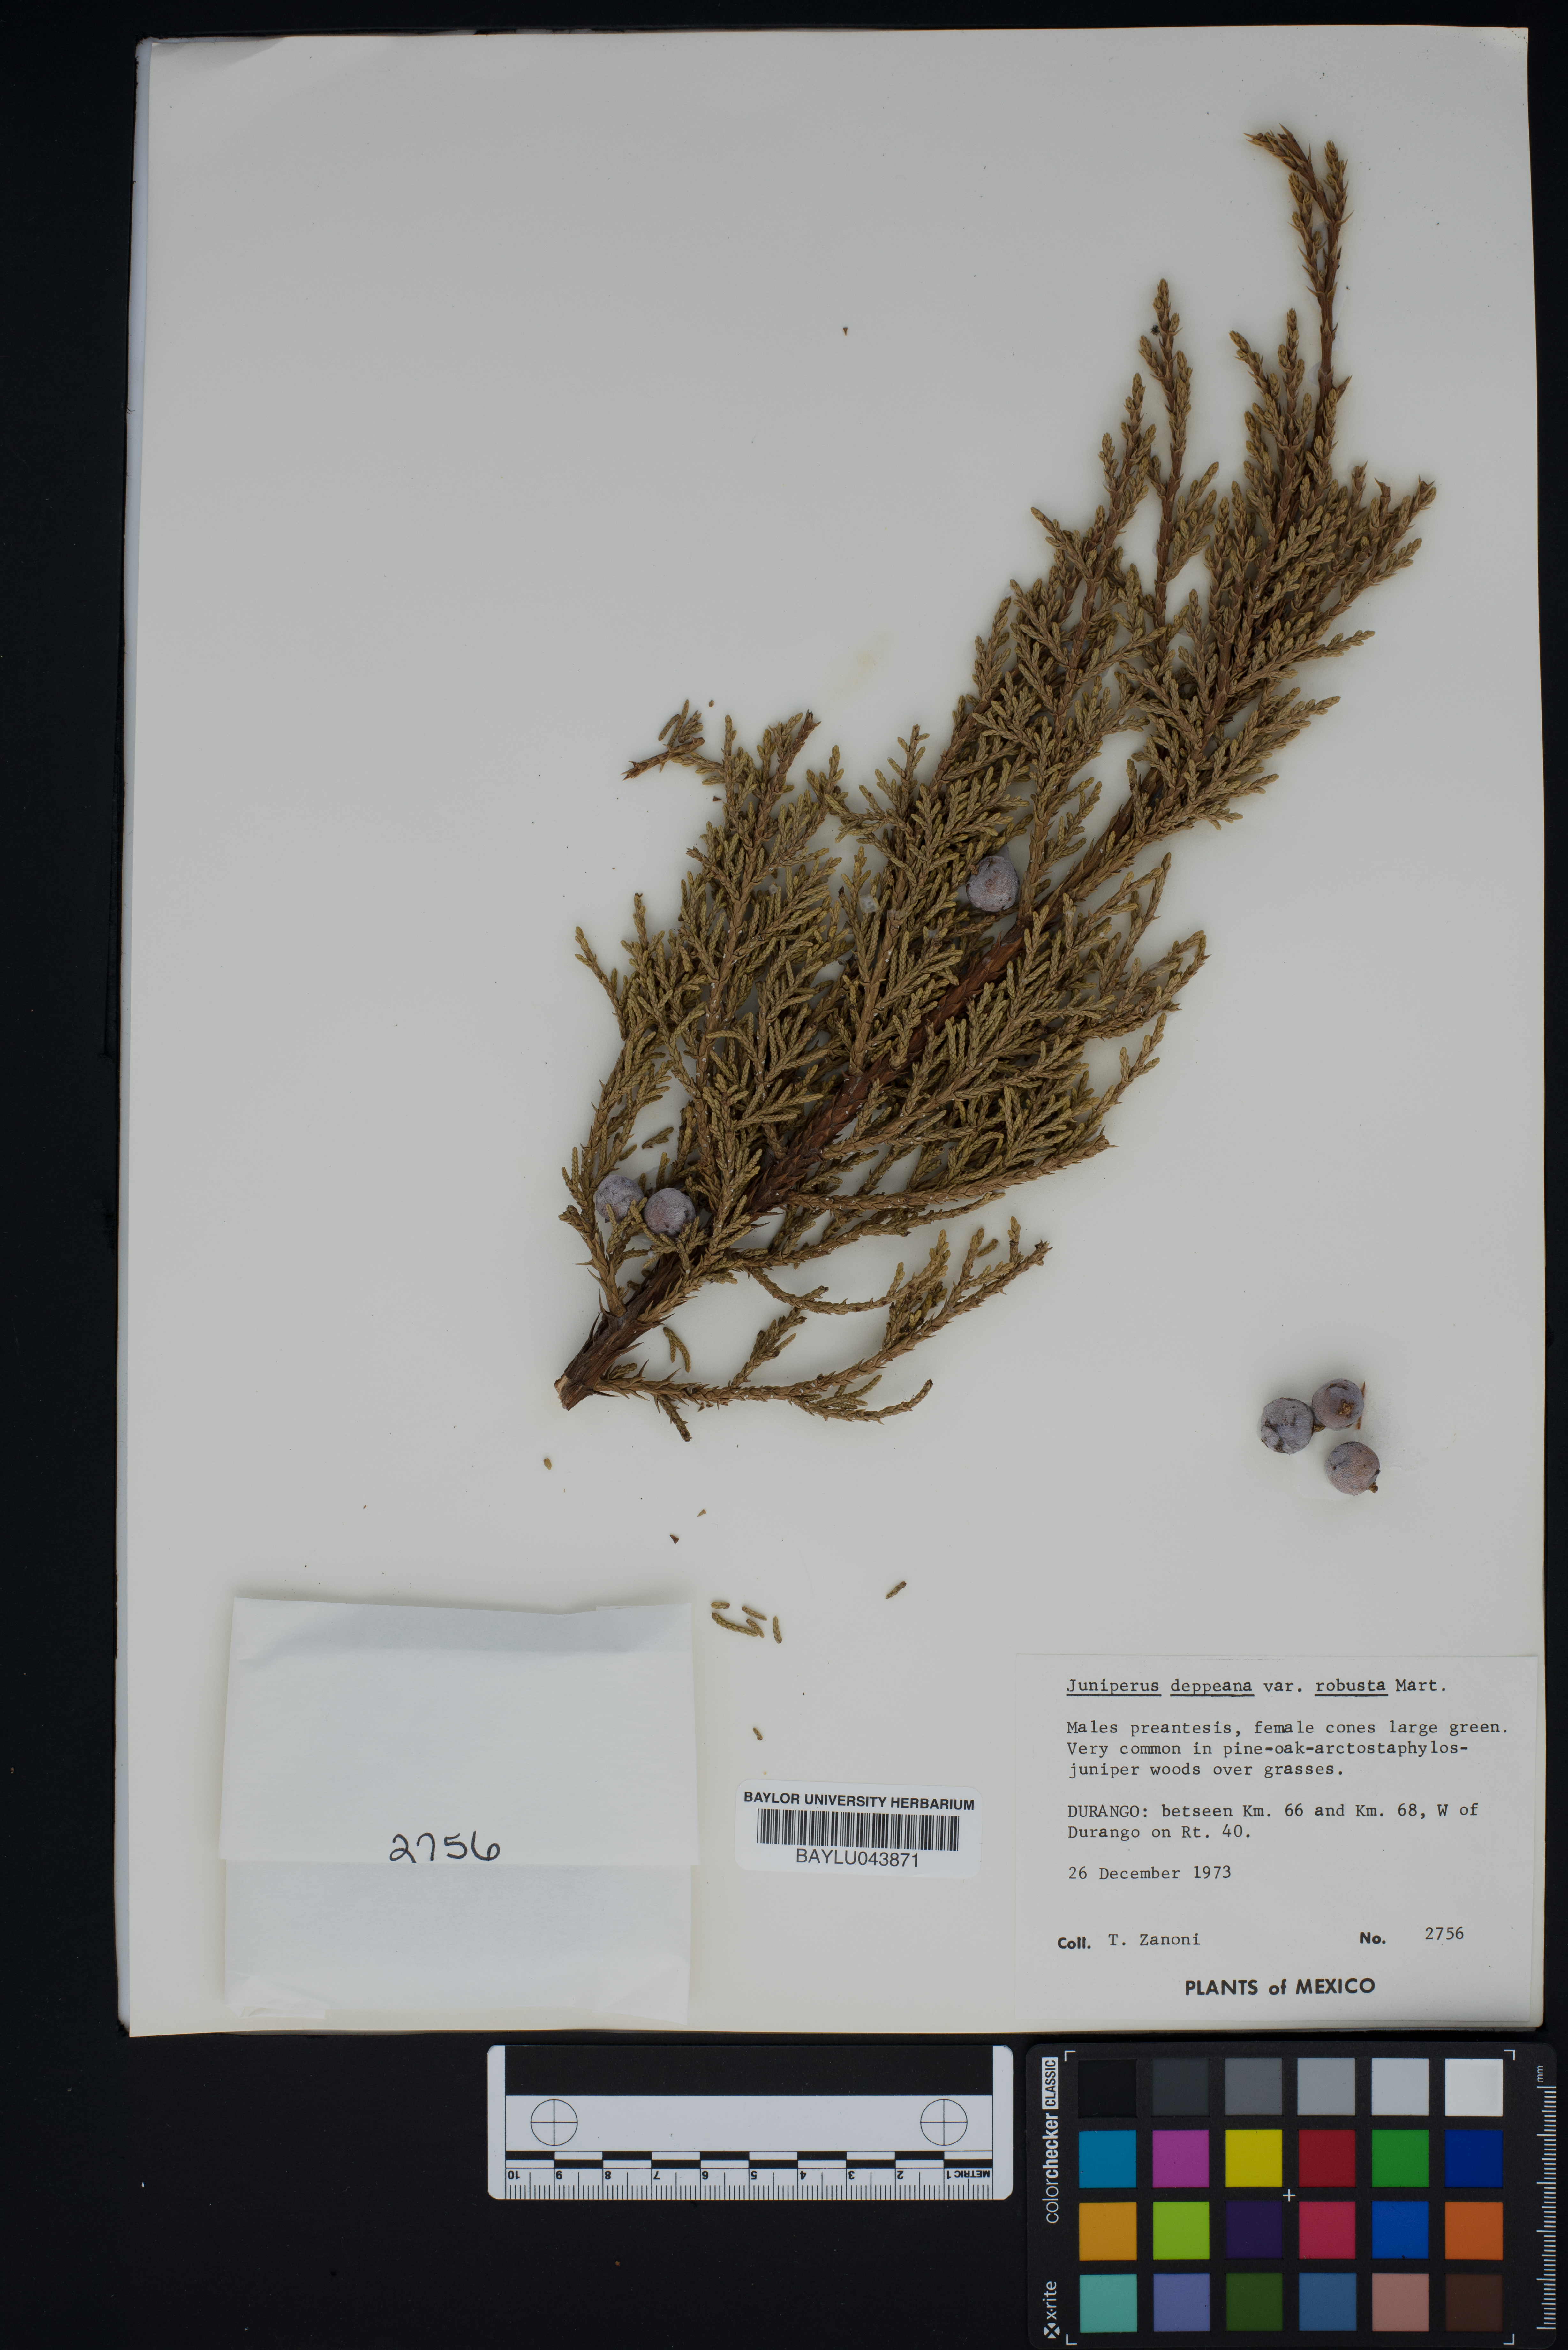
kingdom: Plantae
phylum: Tracheophyta
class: Pinopsida
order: Pinales
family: Cupressaceae
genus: Juniperus
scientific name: Juniperus deppeana
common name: Alligator juniper
